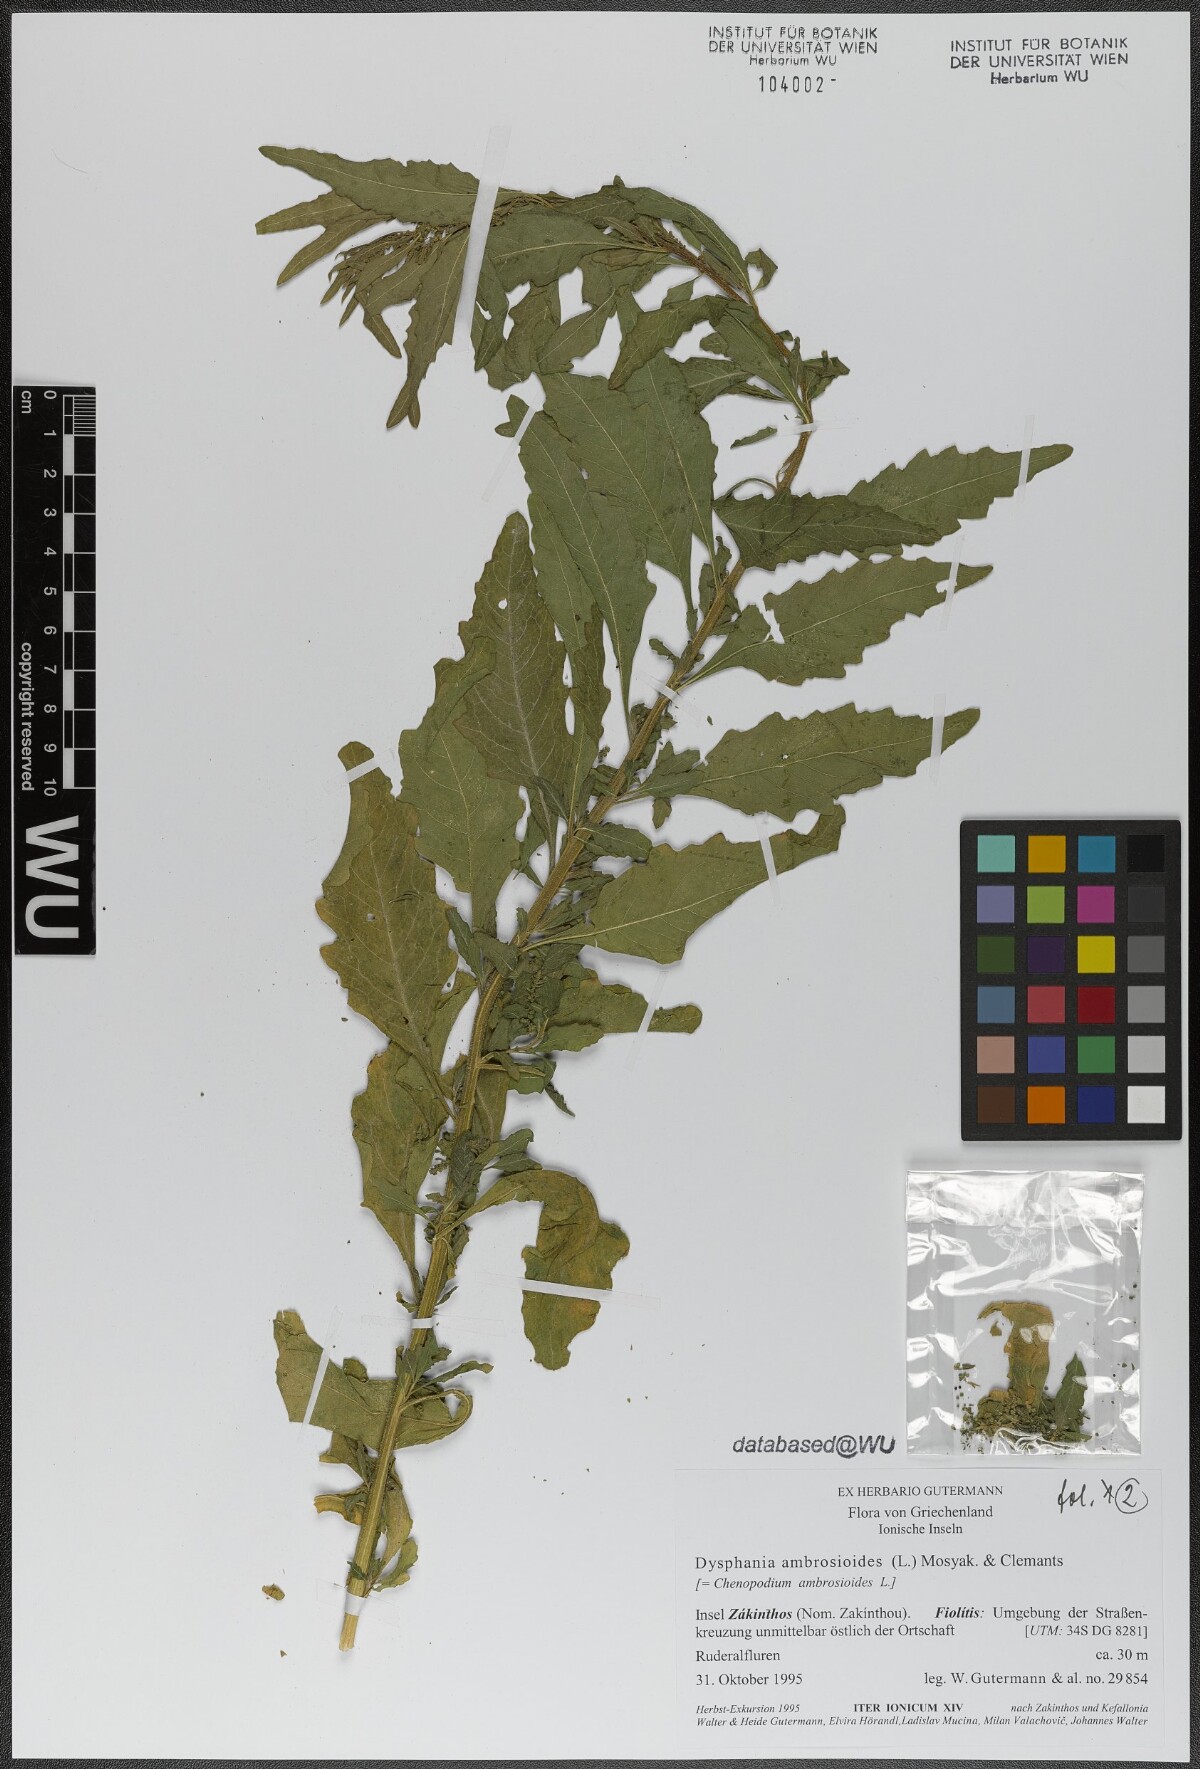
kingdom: Plantae
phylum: Tracheophyta
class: Magnoliopsida
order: Caryophyllales
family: Amaranthaceae
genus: Dysphania
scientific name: Dysphania ambrosioides
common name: Wormseed
